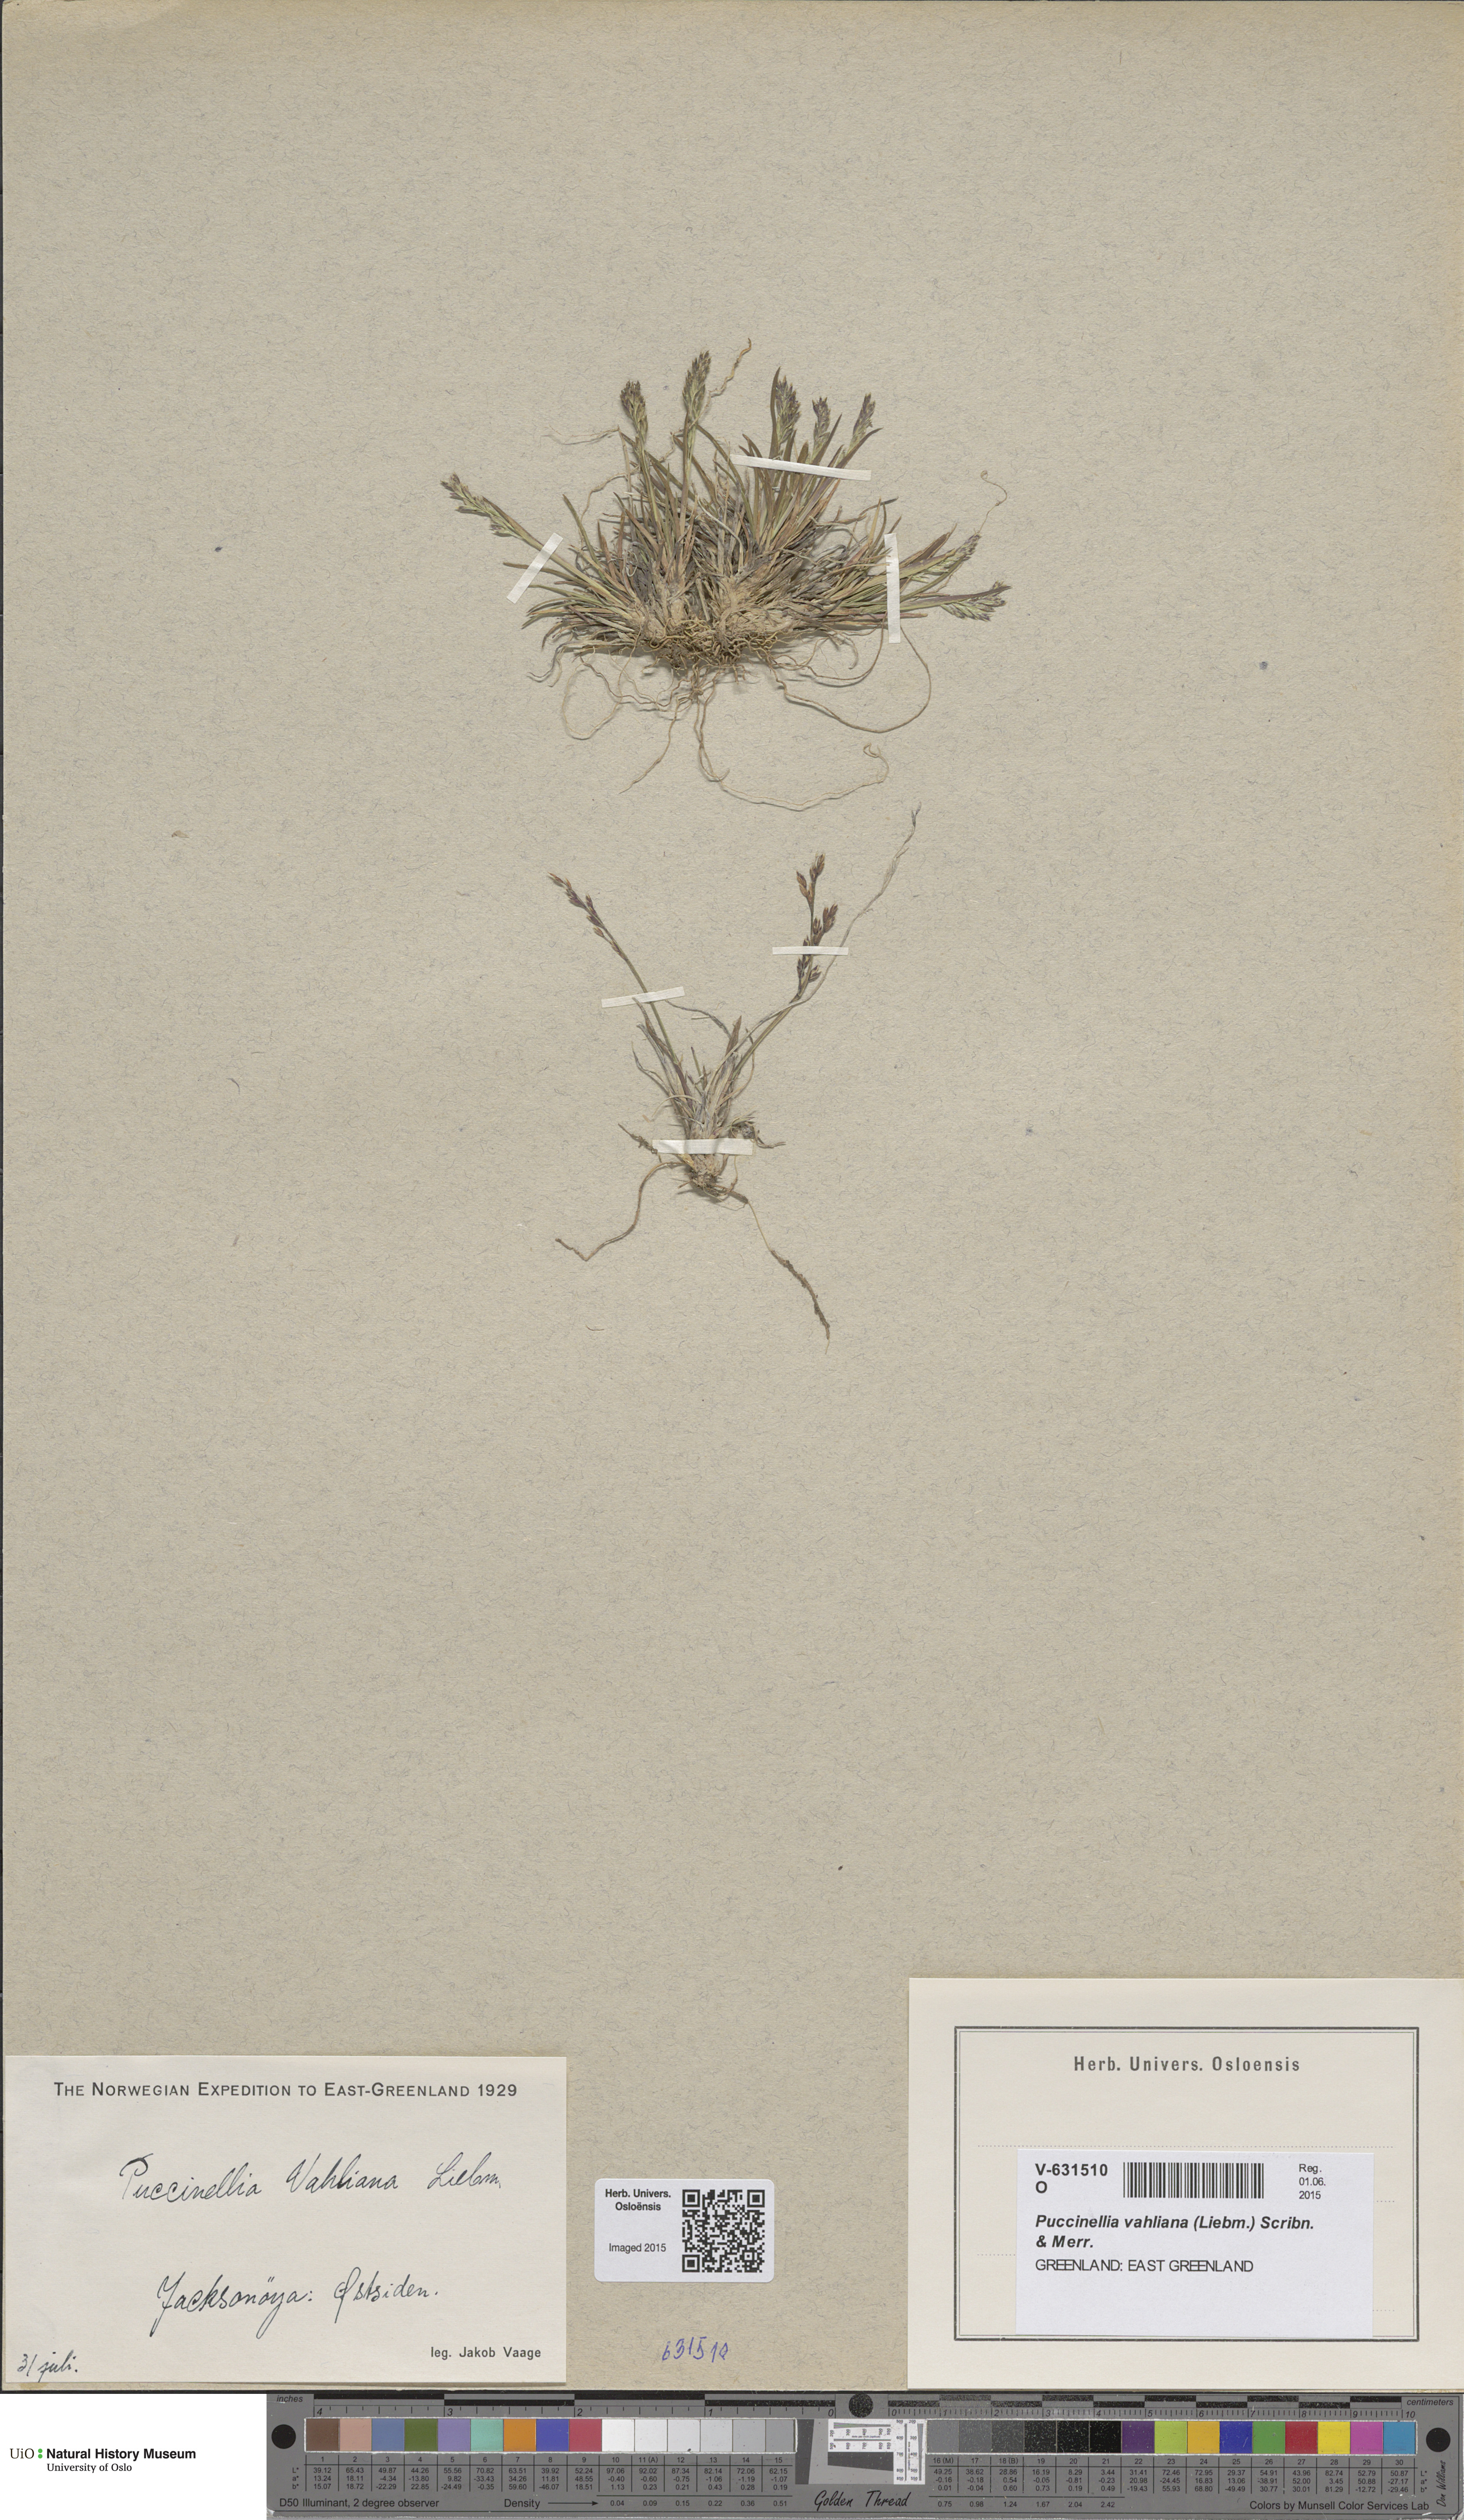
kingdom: Plantae
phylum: Tracheophyta
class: Liliopsida
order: Poales
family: Poaceae
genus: Puccinellia
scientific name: Puccinellia vahliana
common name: Vahl's alkaligrass
